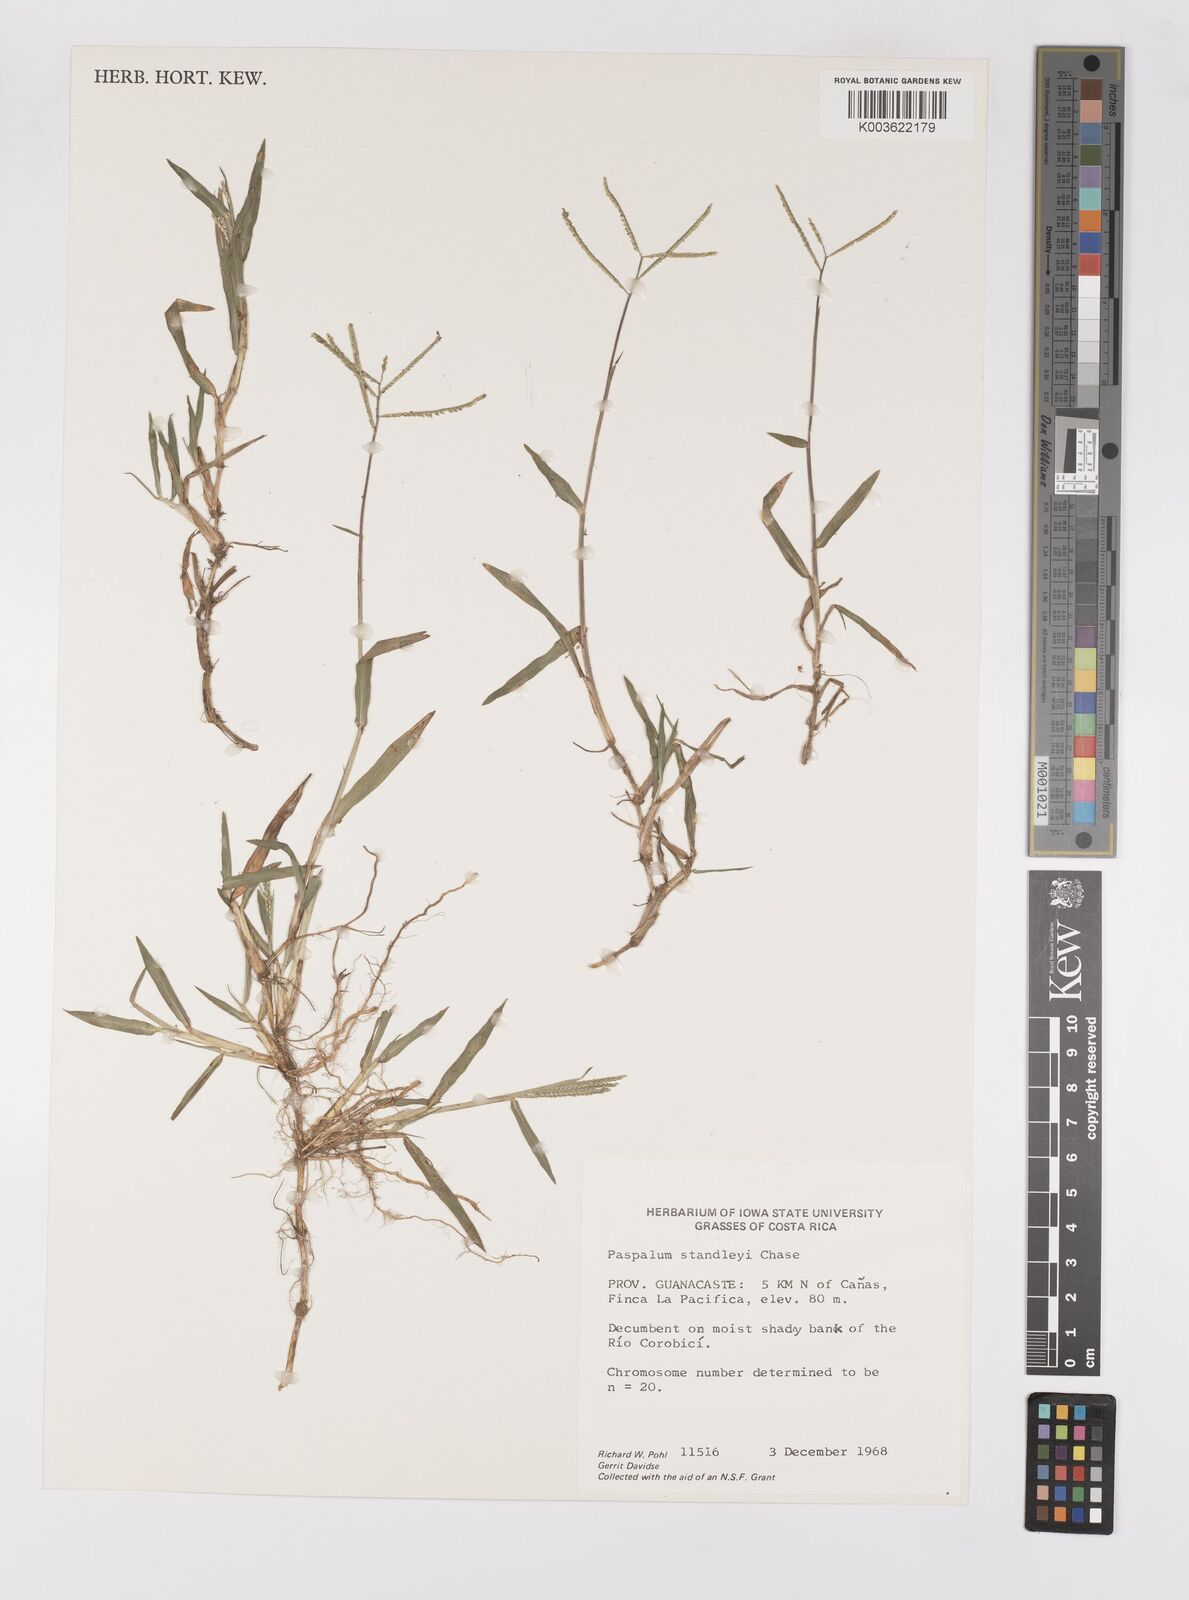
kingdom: Plantae
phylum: Tracheophyta
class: Liliopsida
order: Poales
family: Poaceae
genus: Paspalum
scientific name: Paspalum standleyi
